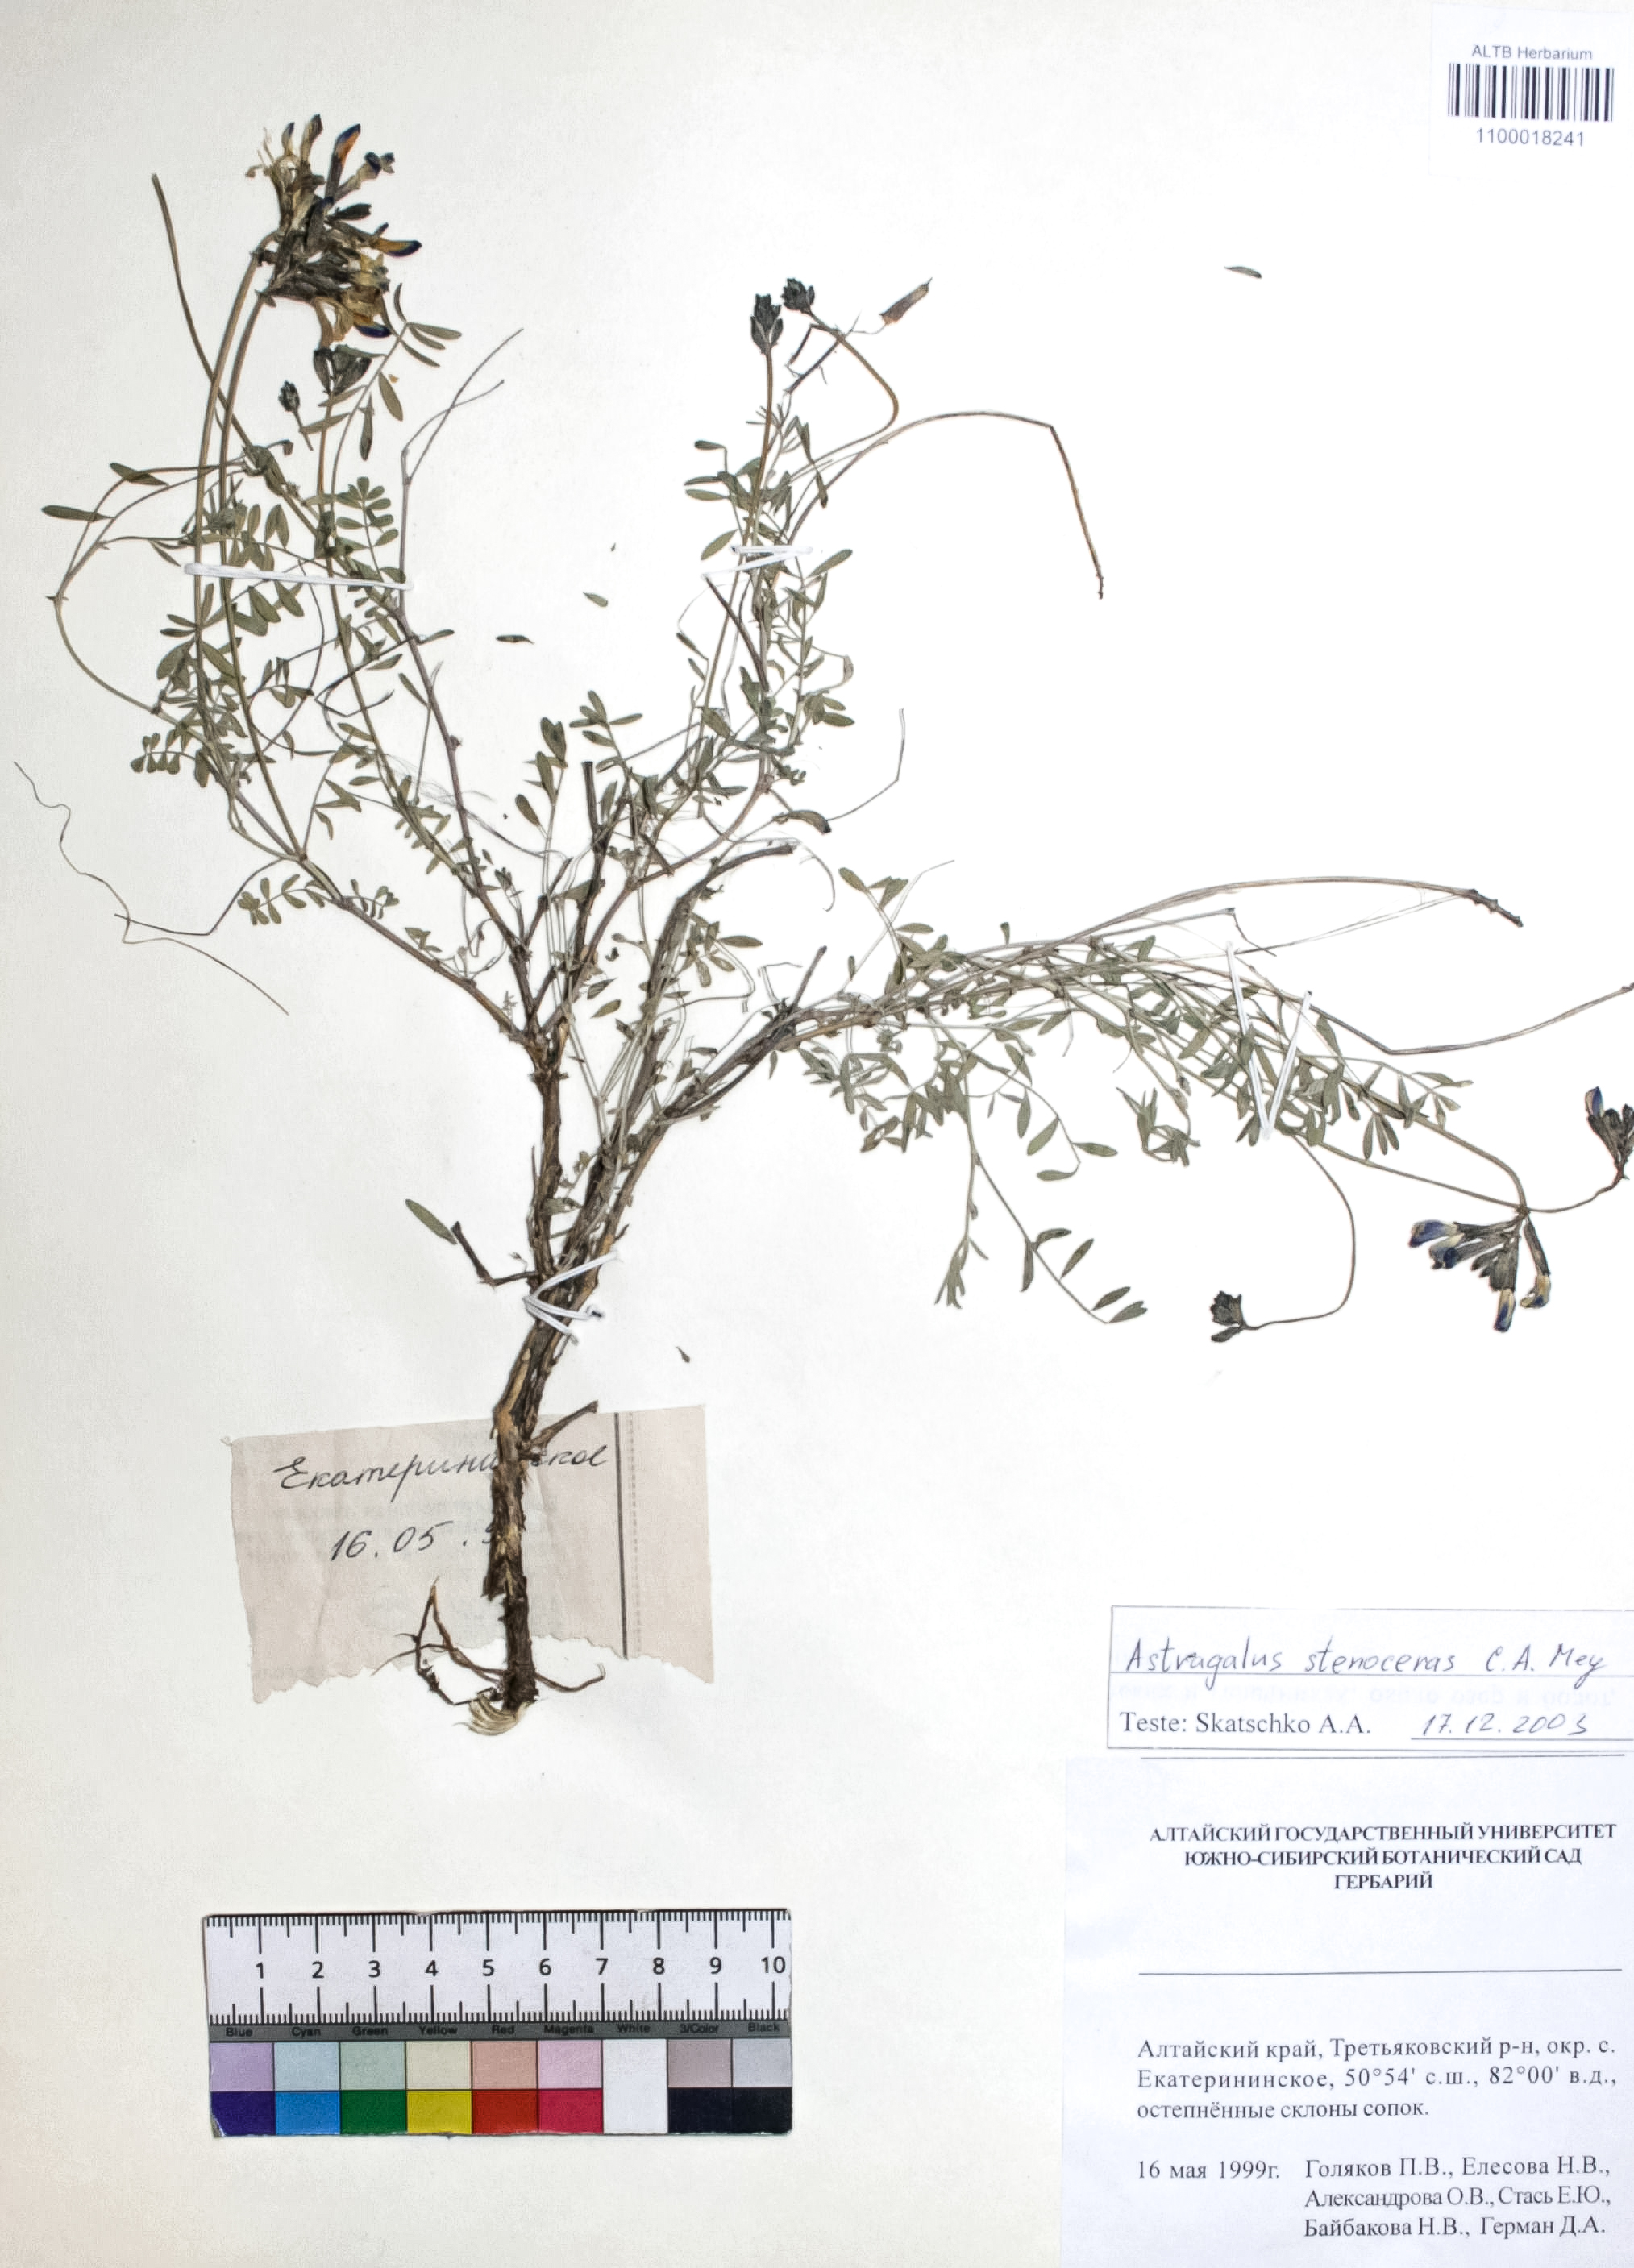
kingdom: Plantae
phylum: Tracheophyta
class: Magnoliopsida
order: Fabales
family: Fabaceae
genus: Astragalus
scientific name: Astragalus stenoceras
